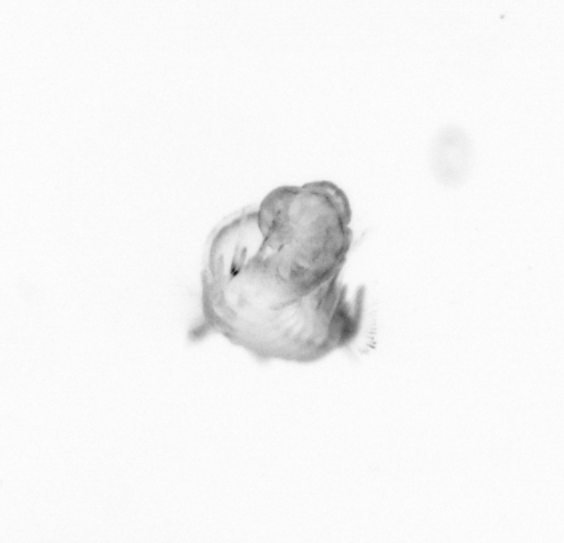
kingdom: Animalia
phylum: Annelida
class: Polychaeta
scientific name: Polychaeta
